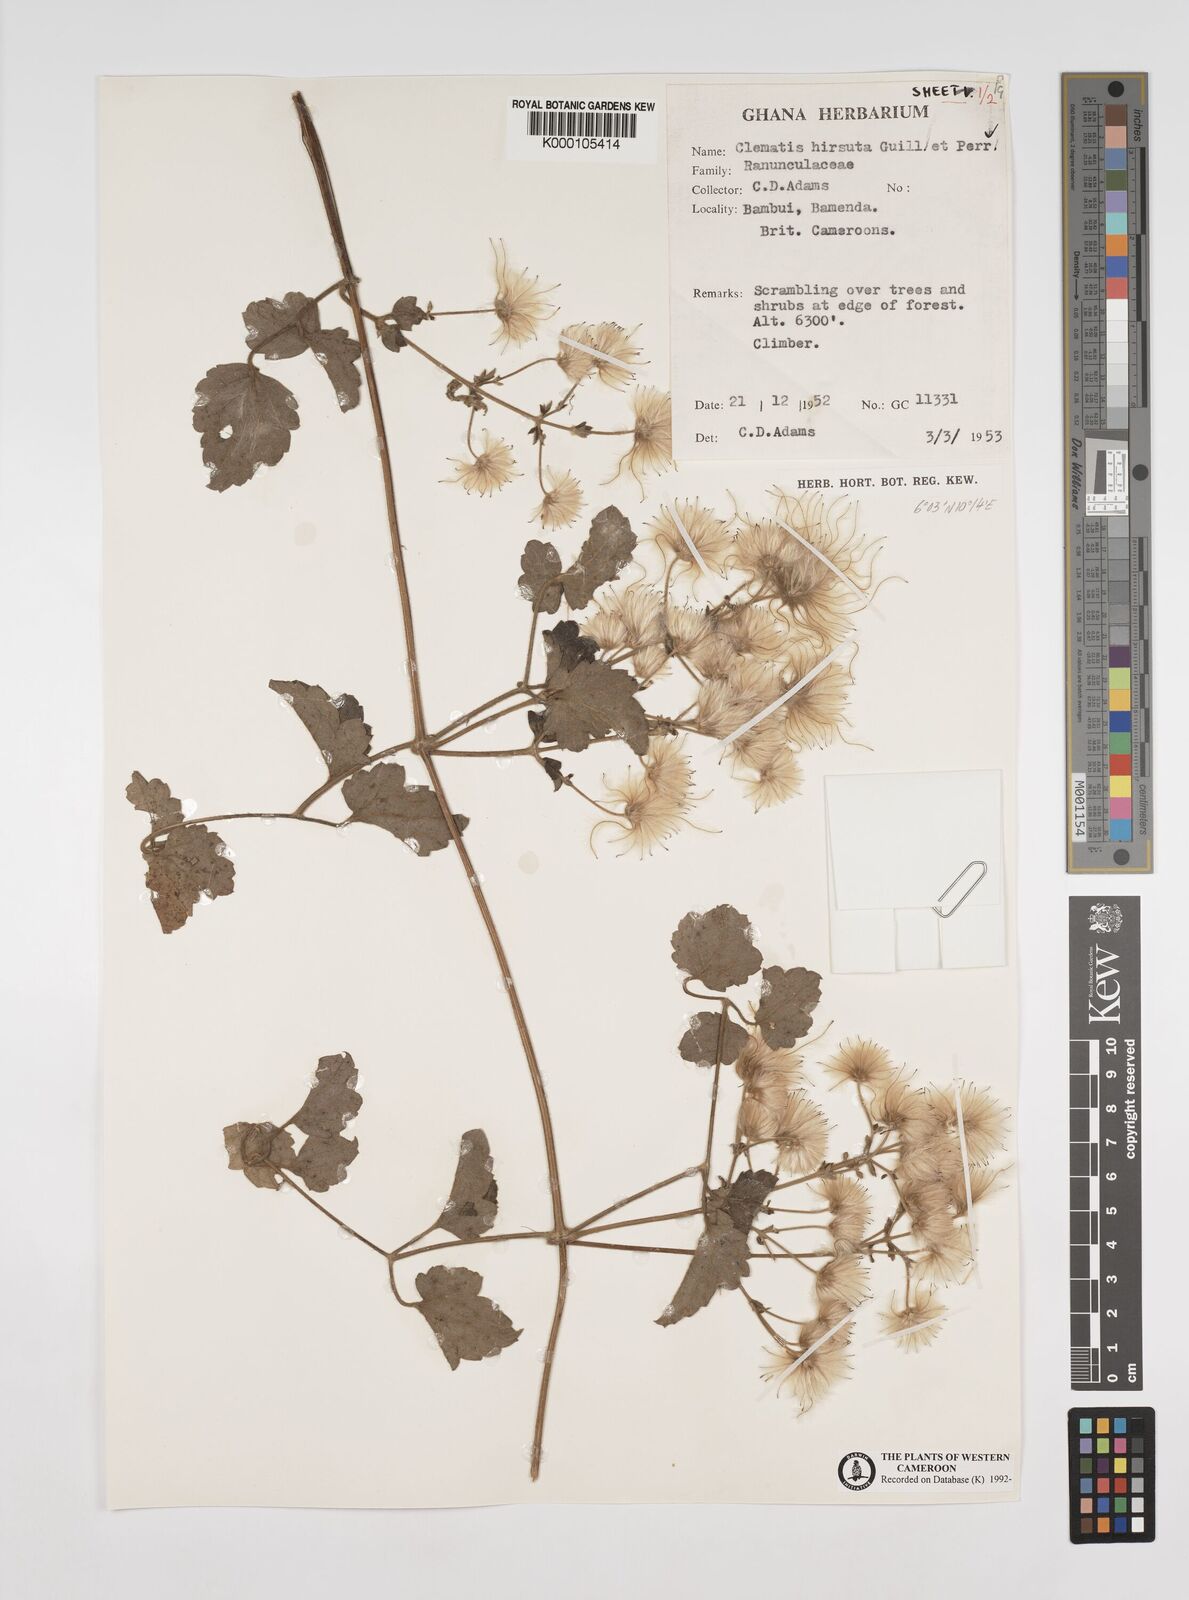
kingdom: Plantae
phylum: Tracheophyta
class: Magnoliopsida
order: Ranunculales
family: Ranunculaceae
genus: Clematis
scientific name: Clematis hirsuta
